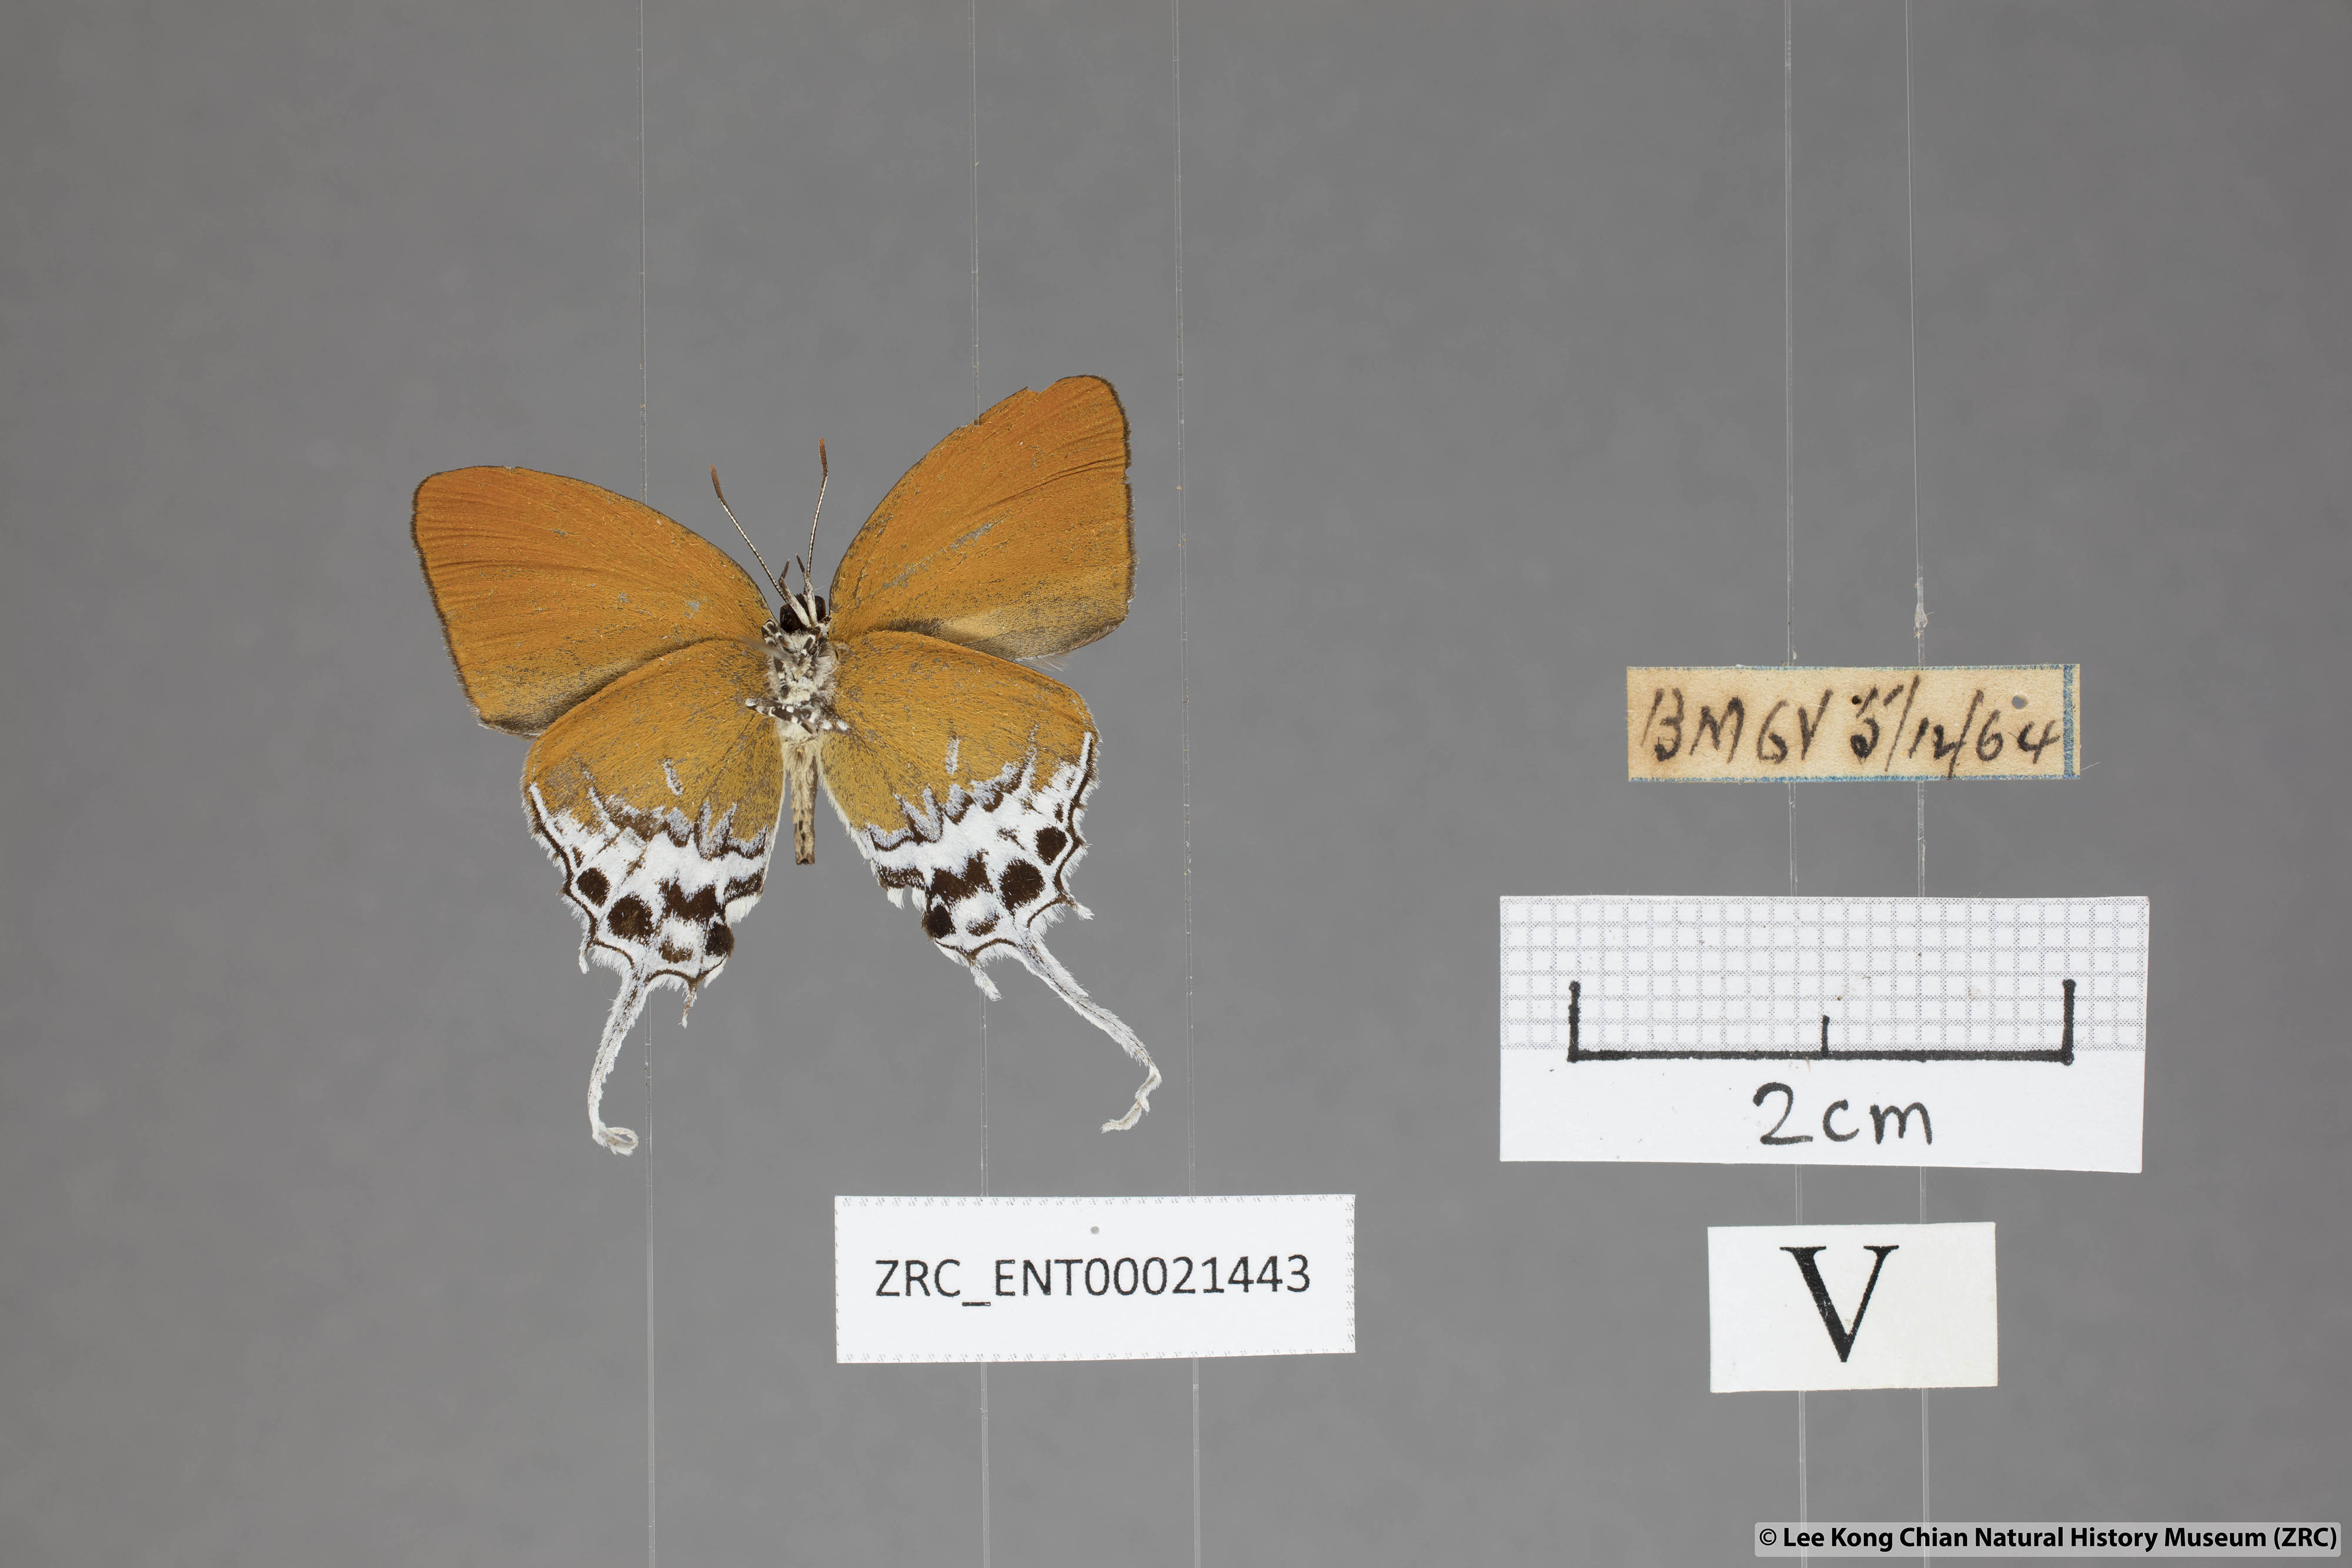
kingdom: Animalia
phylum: Arthropoda
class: Insecta
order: Lepidoptera
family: Lycaenidae
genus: Eooxylides
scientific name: Eooxylides tharis
